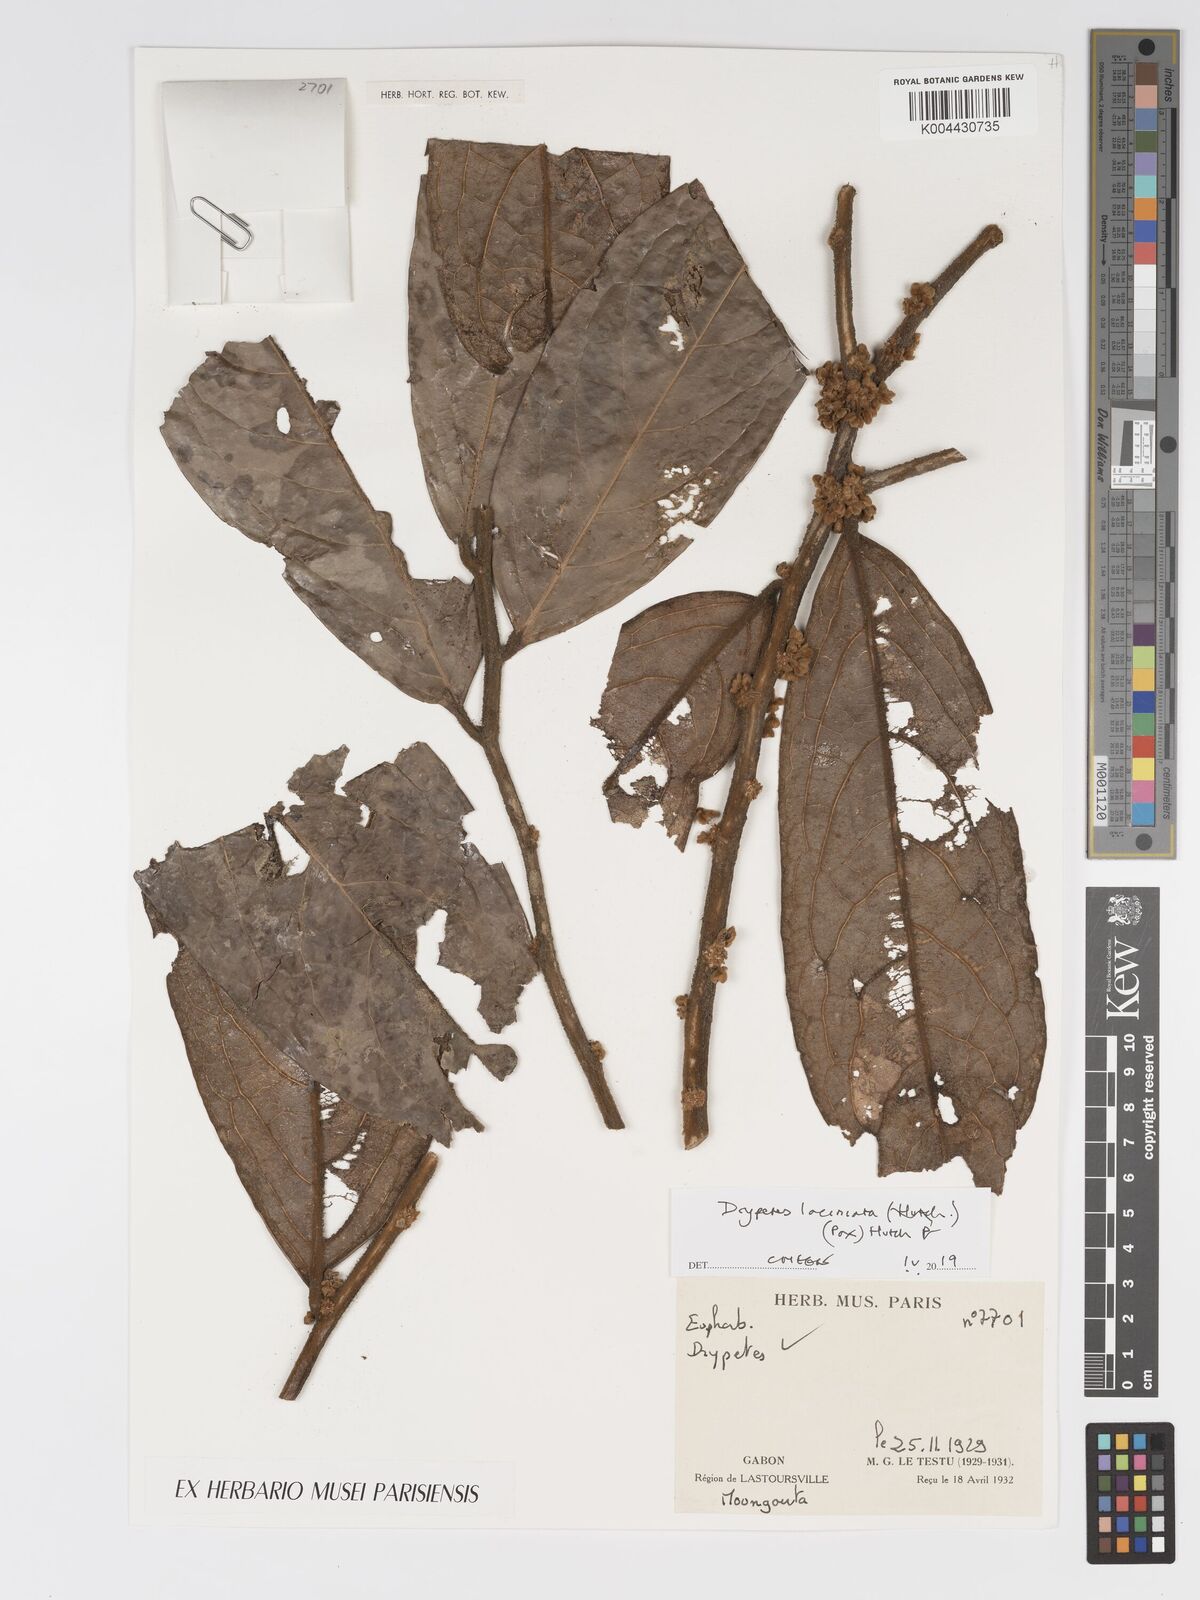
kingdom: Plantae
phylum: Tracheophyta
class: Magnoliopsida
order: Malpighiales
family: Putranjivaceae
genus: Drypetes
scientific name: Drypetes laciniata
